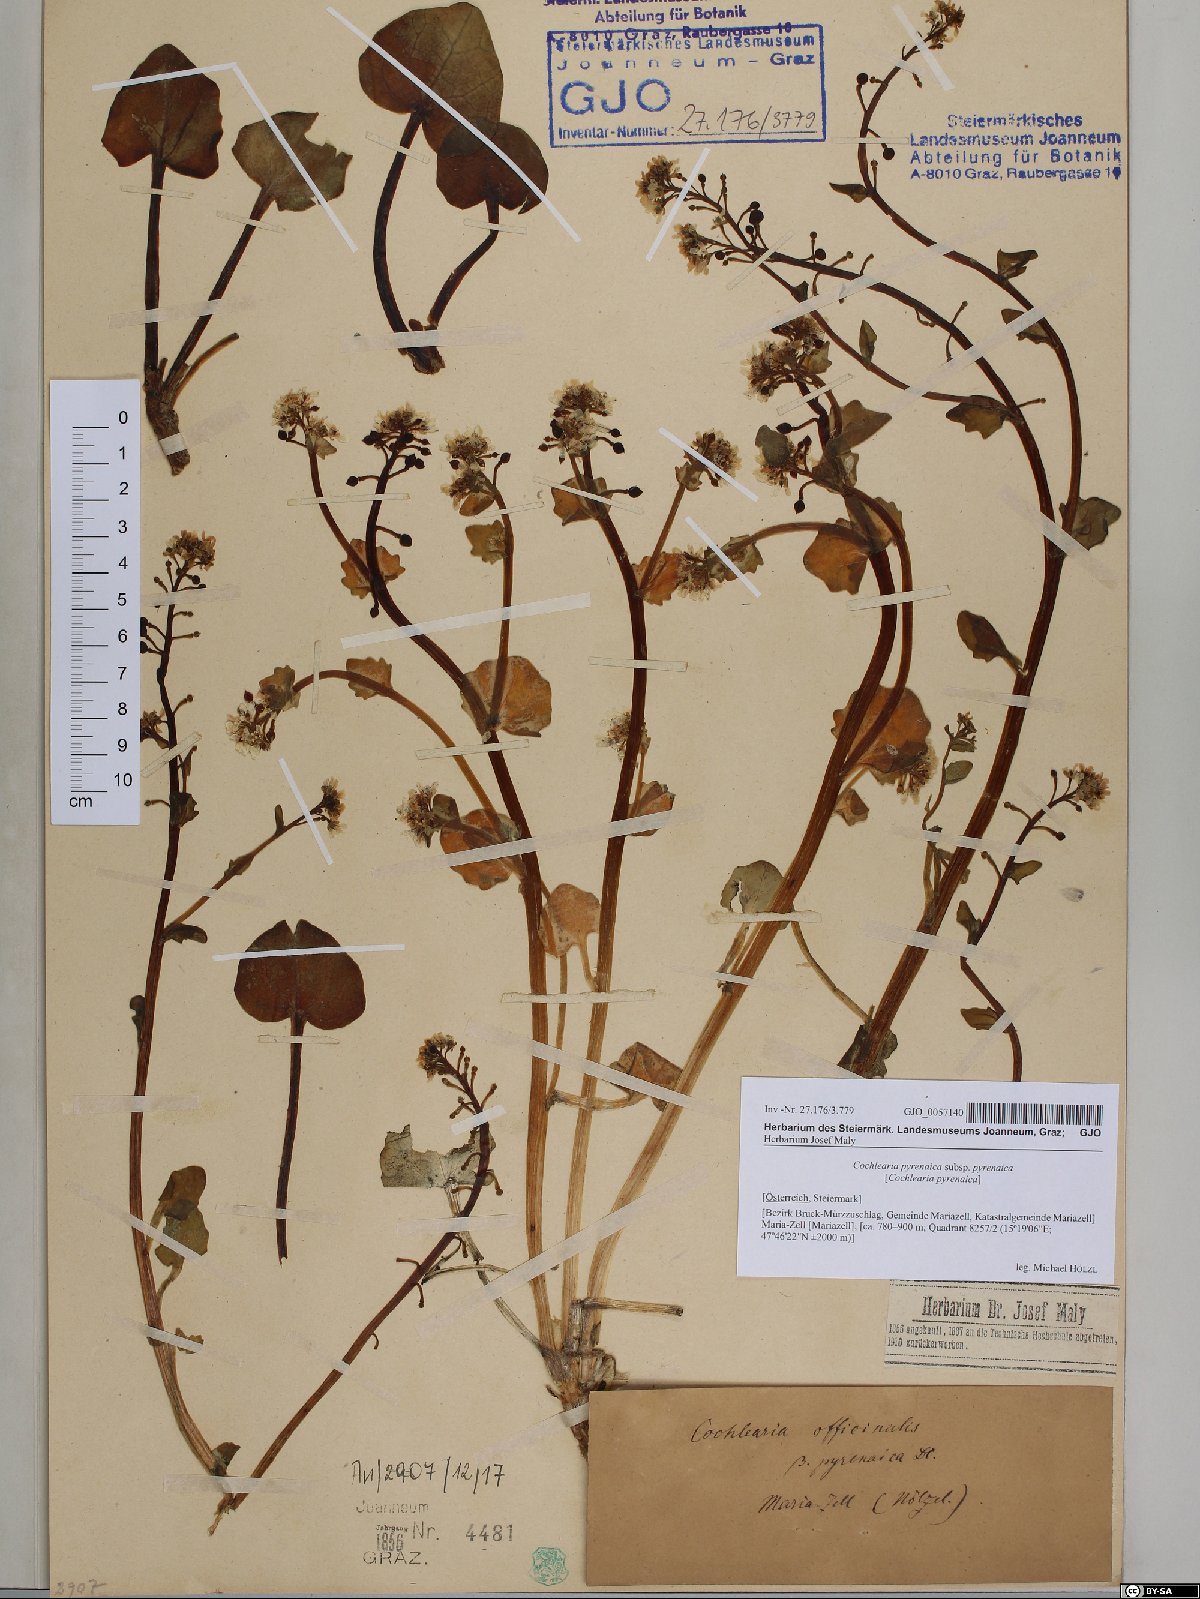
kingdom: Plantae
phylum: Tracheophyta
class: Magnoliopsida
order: Brassicales
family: Brassicaceae
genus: Cochlearia
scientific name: Cochlearia pyrenaica
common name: Upland scurvy-grass
